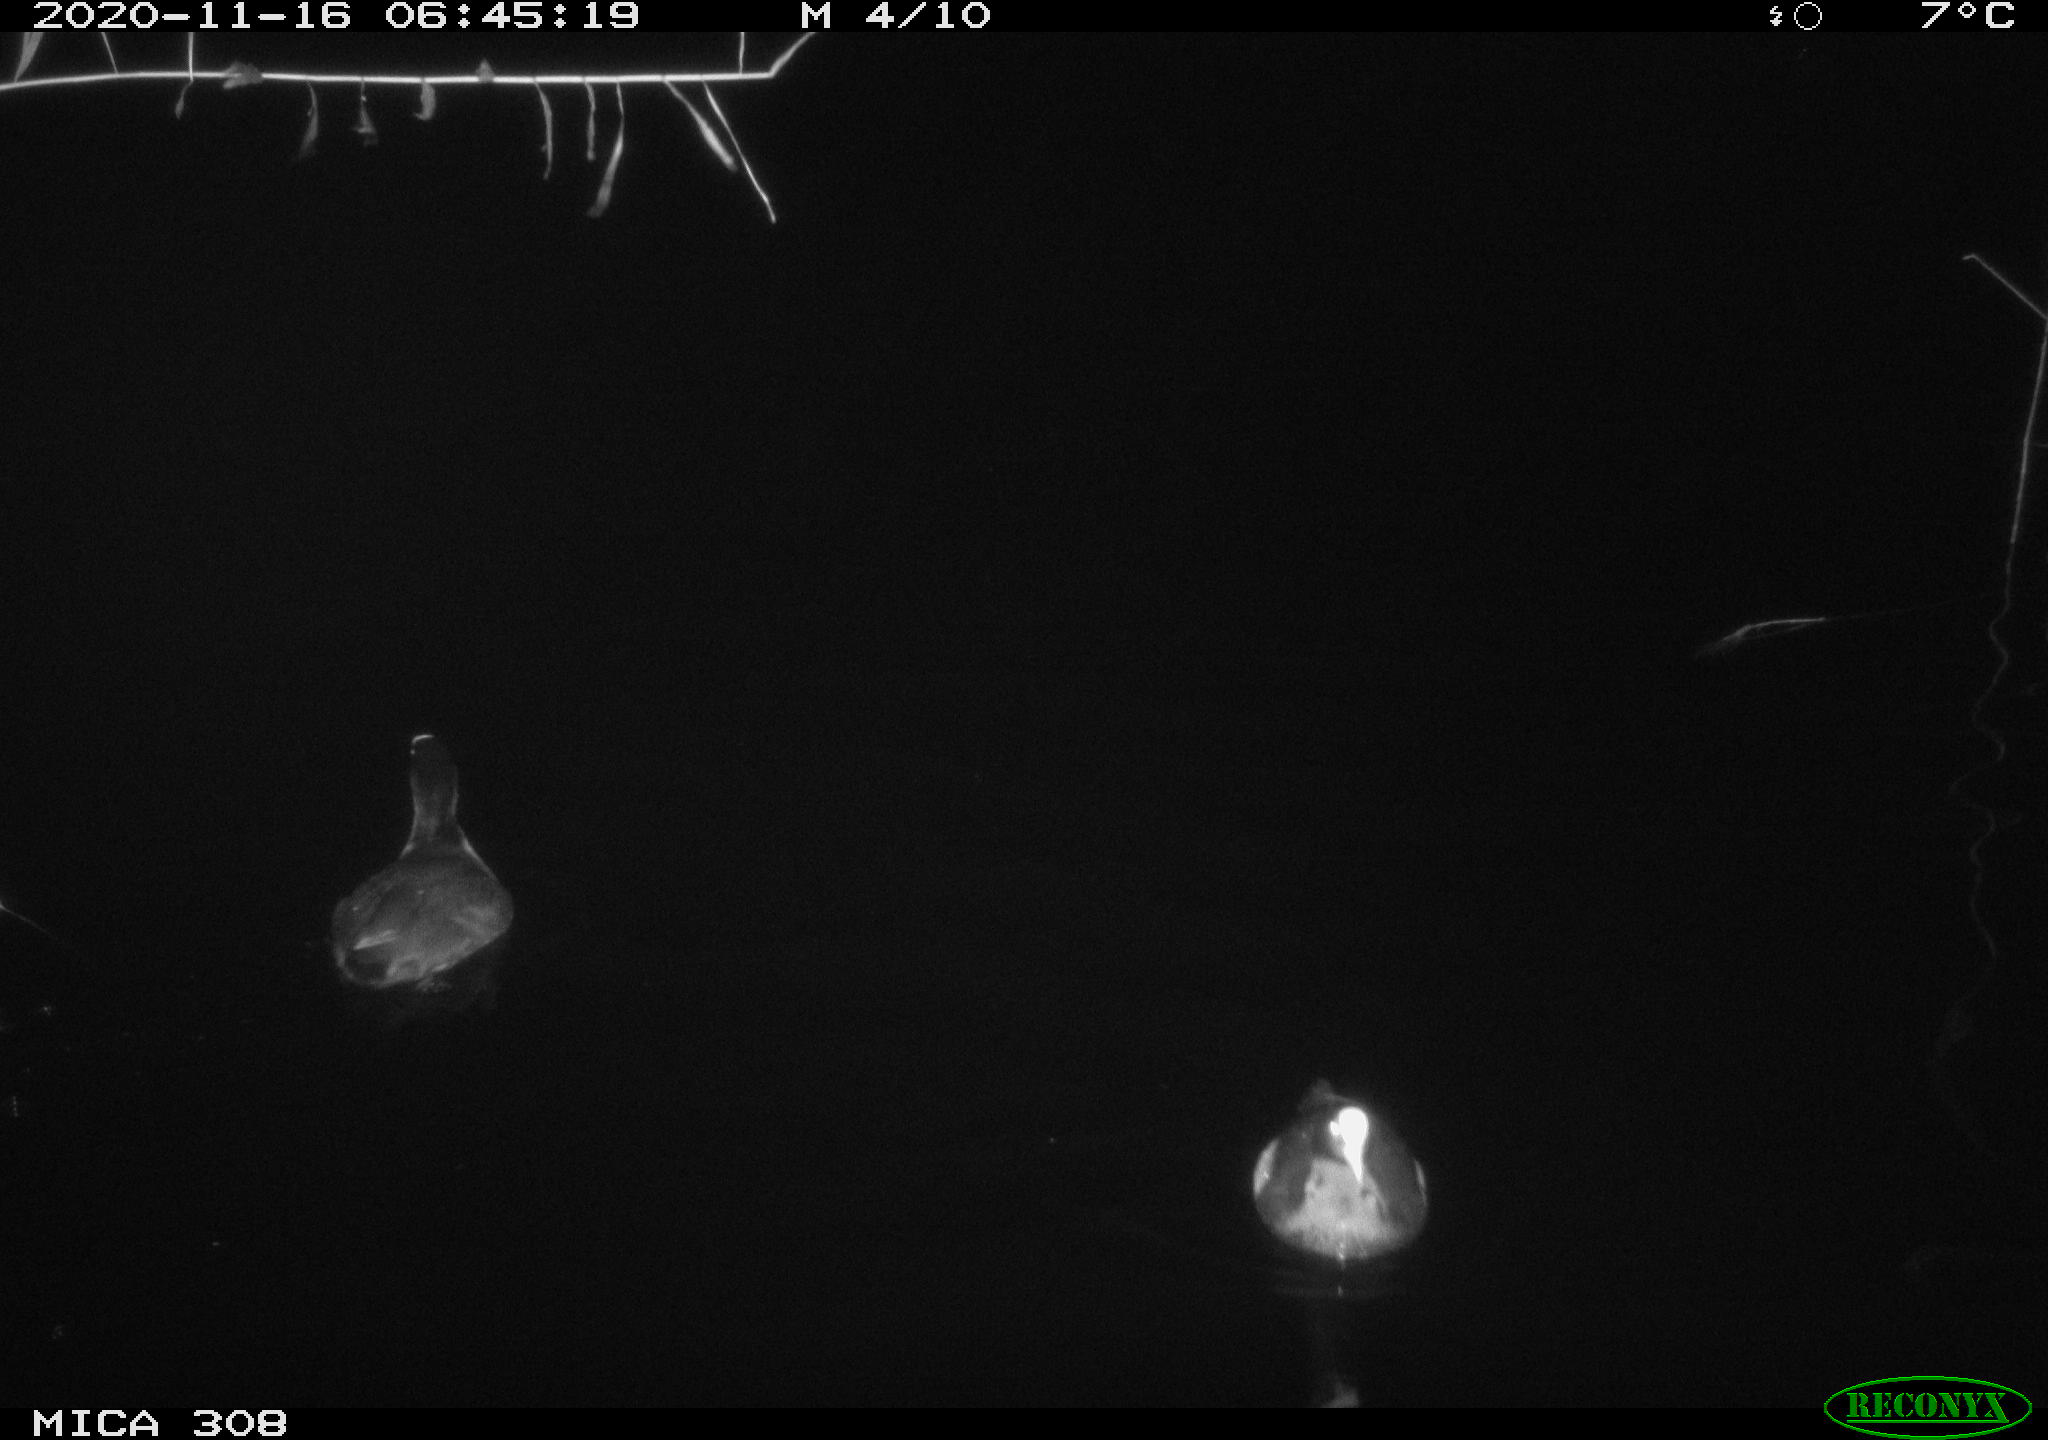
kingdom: Animalia
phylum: Chordata
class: Aves
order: Gruiformes
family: Rallidae
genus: Fulica
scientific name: Fulica atra
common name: Eurasian coot
